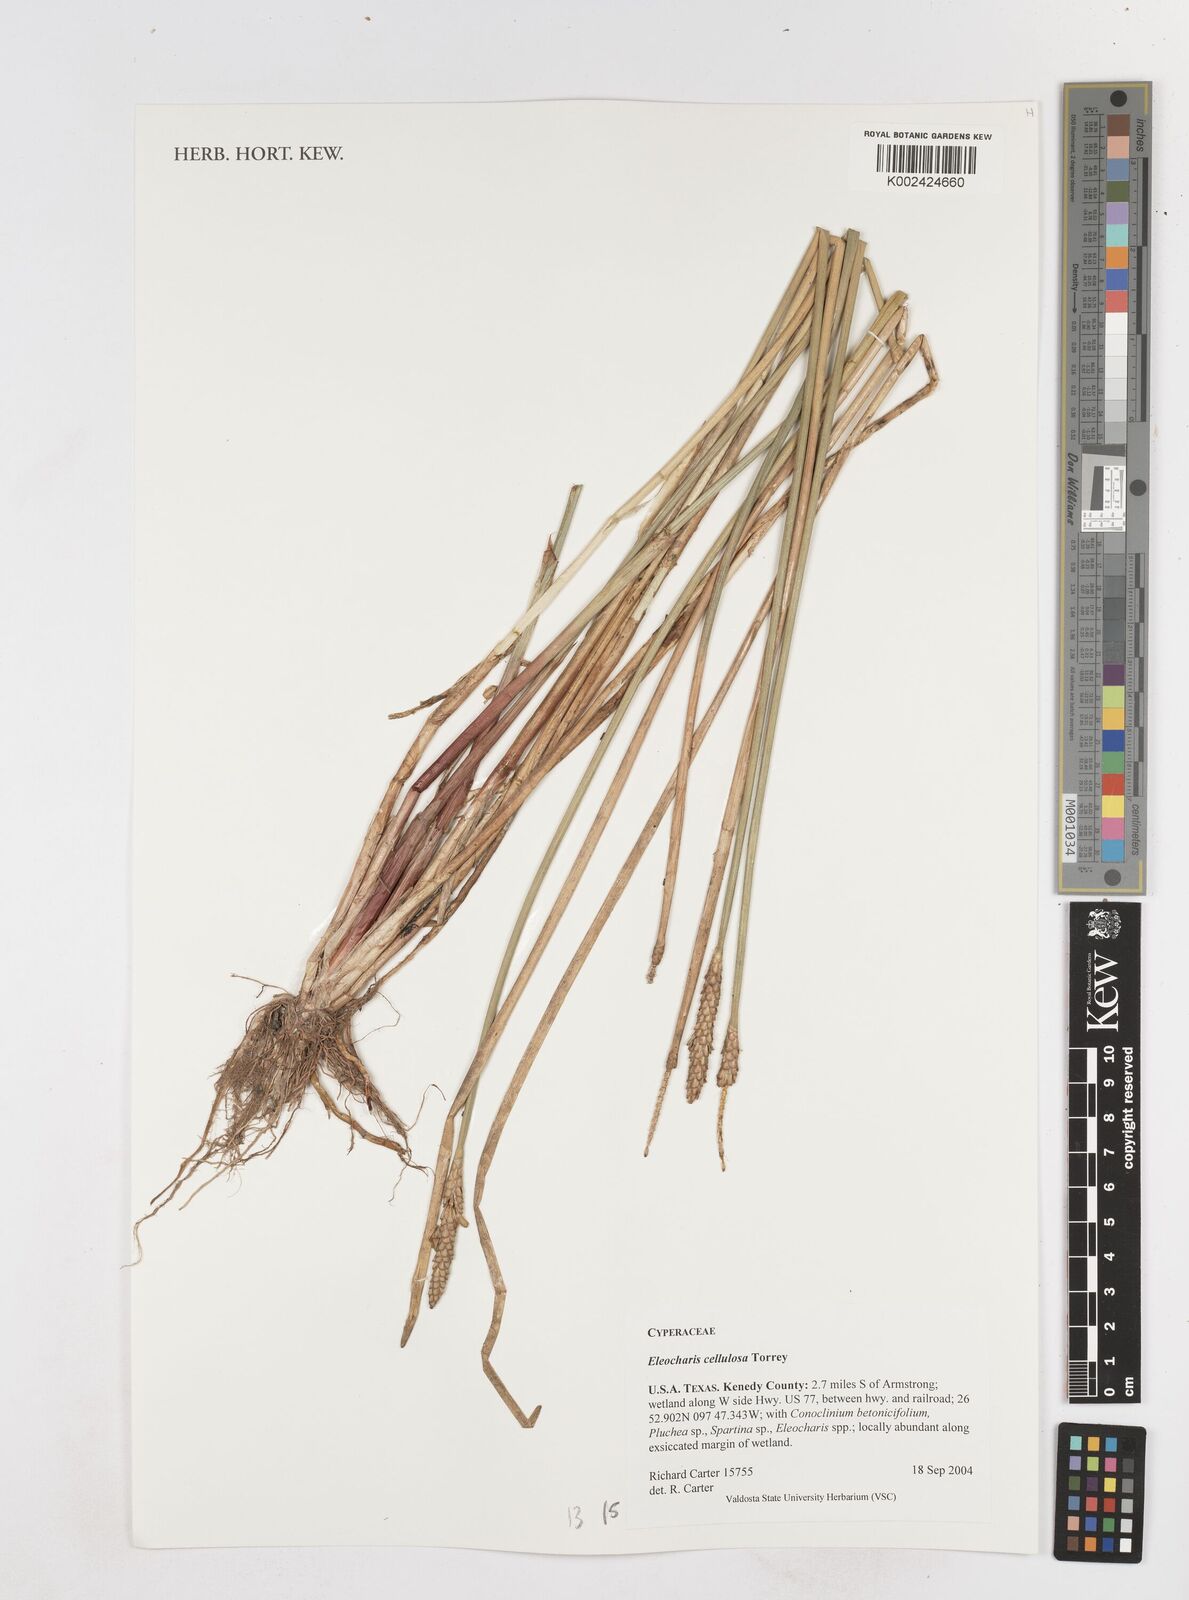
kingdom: Plantae
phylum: Tracheophyta
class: Liliopsida
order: Poales
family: Cyperaceae
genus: Eleocharis
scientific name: Eleocharis cellulosa
